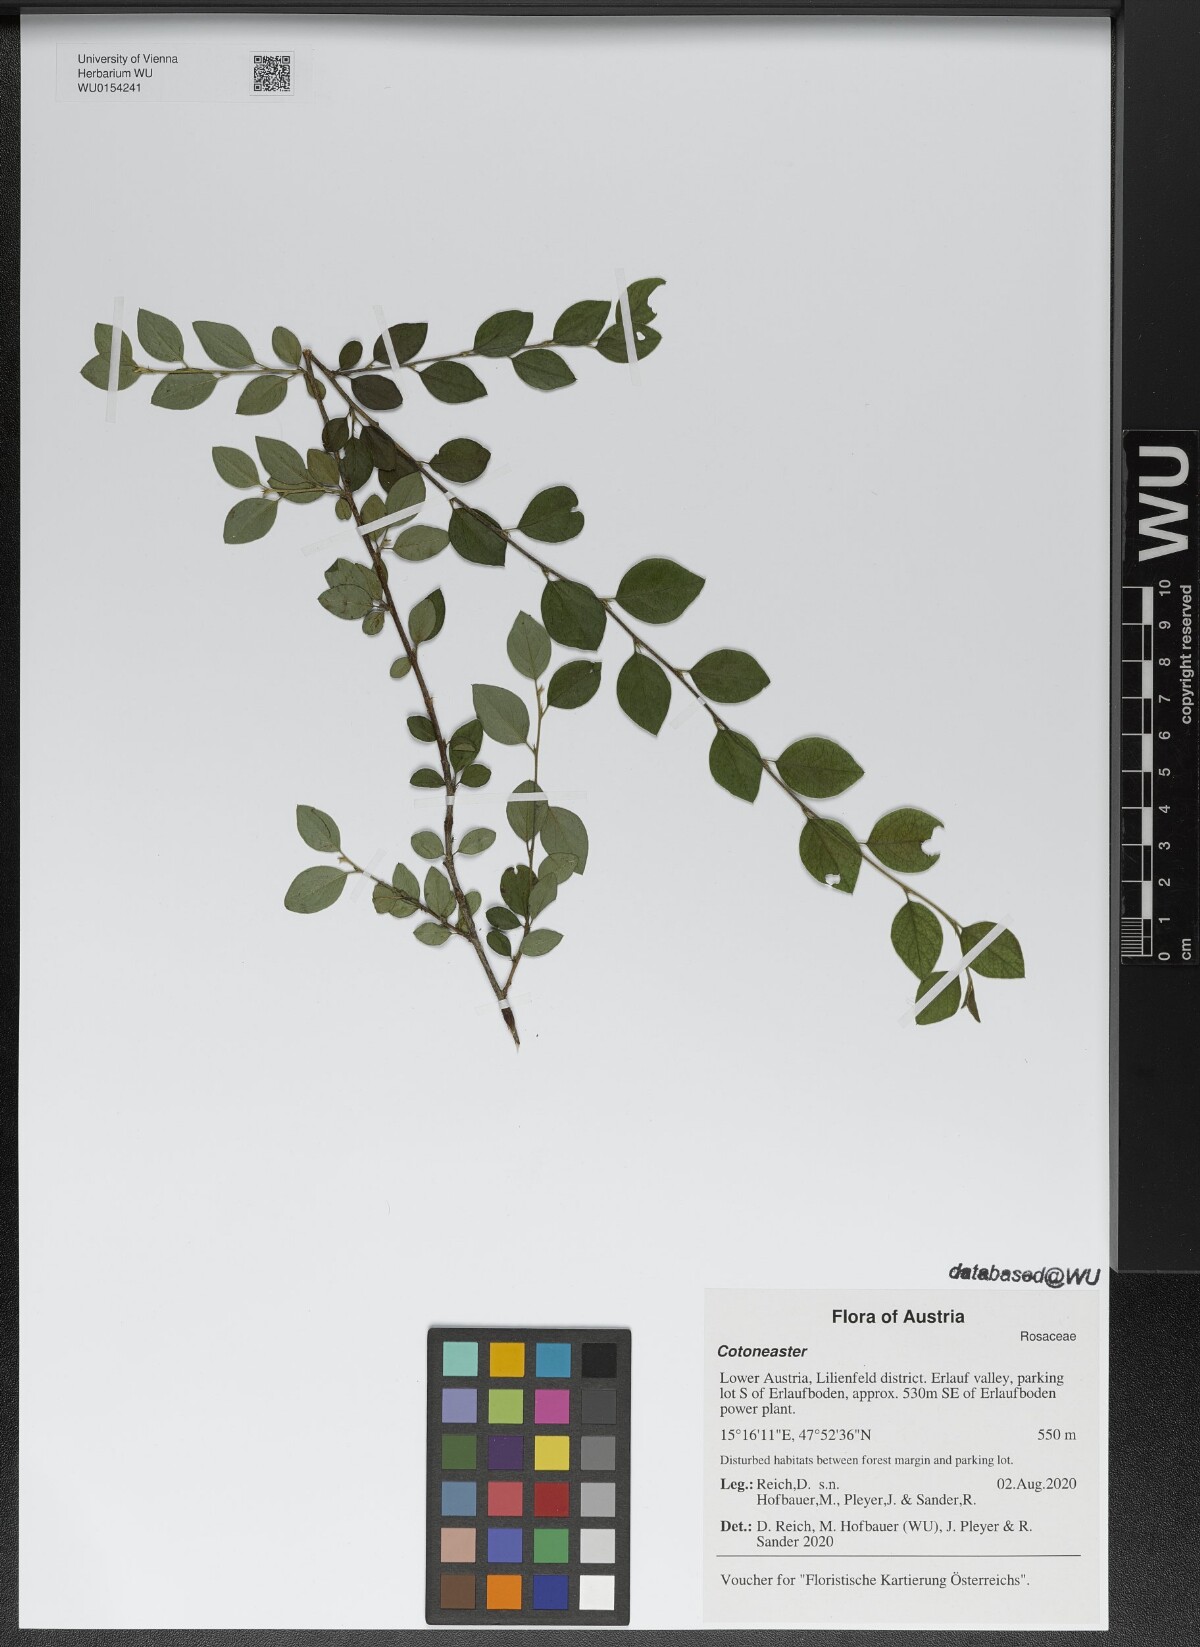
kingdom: Plantae
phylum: Tracheophyta
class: Magnoliopsida
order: Rosales
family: Rosaceae
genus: Cotoneaster
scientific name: Cotoneaster divaricatus
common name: Spreading cotoneaster
